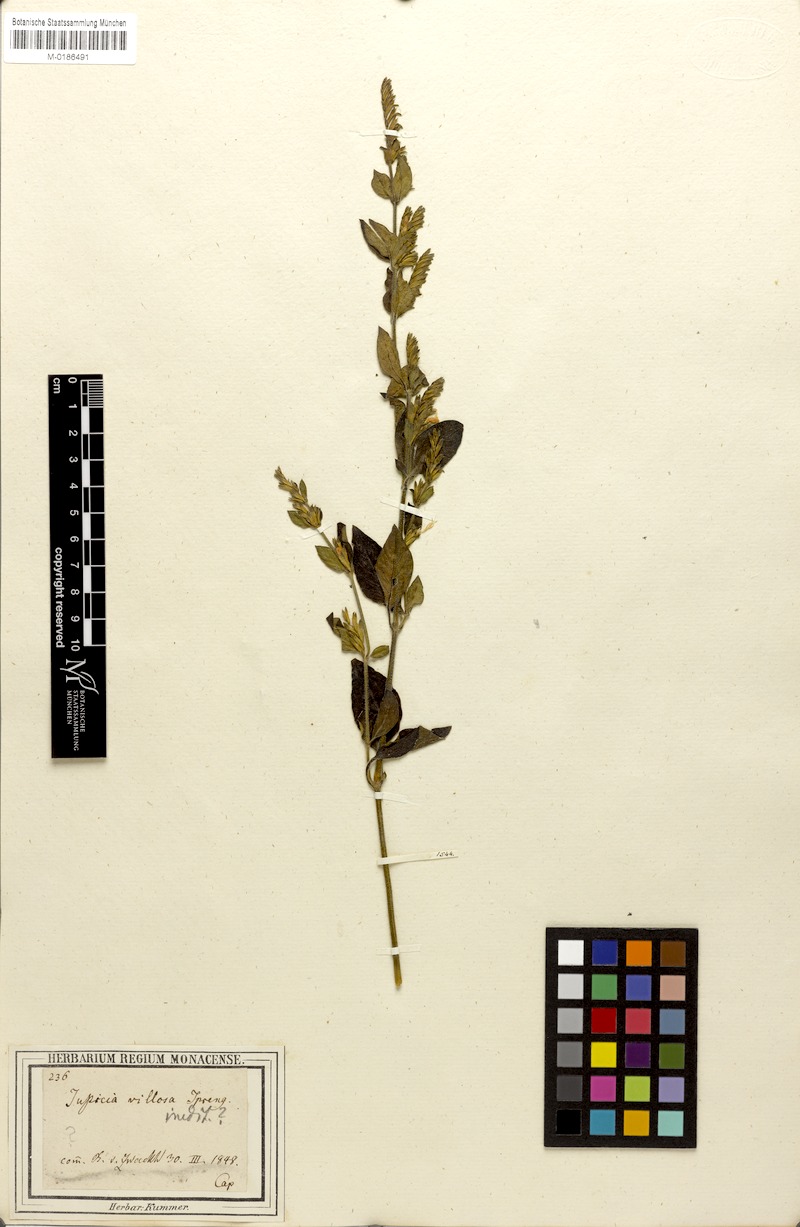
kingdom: Plantae
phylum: Tracheophyta
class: Magnoliopsida
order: Lamiales
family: Acanthaceae
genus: Hypoestes
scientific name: Hypoestes
